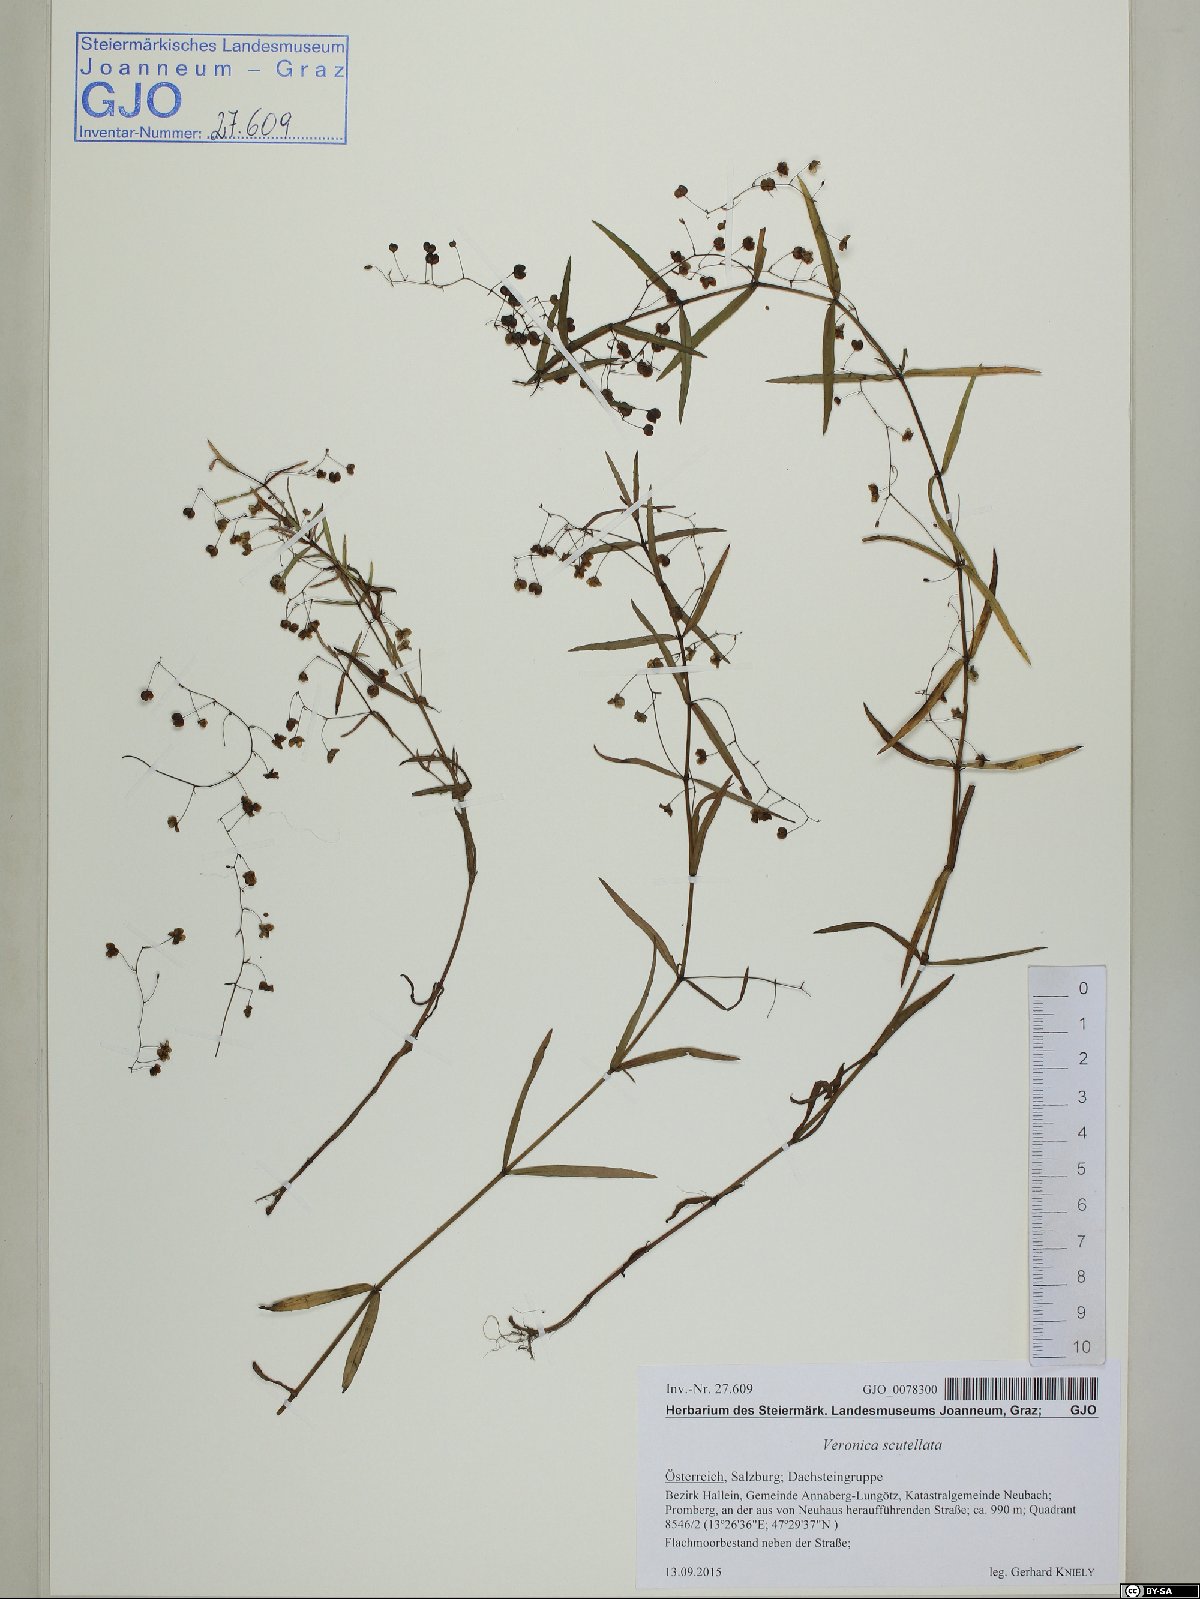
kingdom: Plantae
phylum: Tracheophyta
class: Magnoliopsida
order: Lamiales
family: Plantaginaceae
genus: Veronica
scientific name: Veronica scutellata
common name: Marsh speedwell
